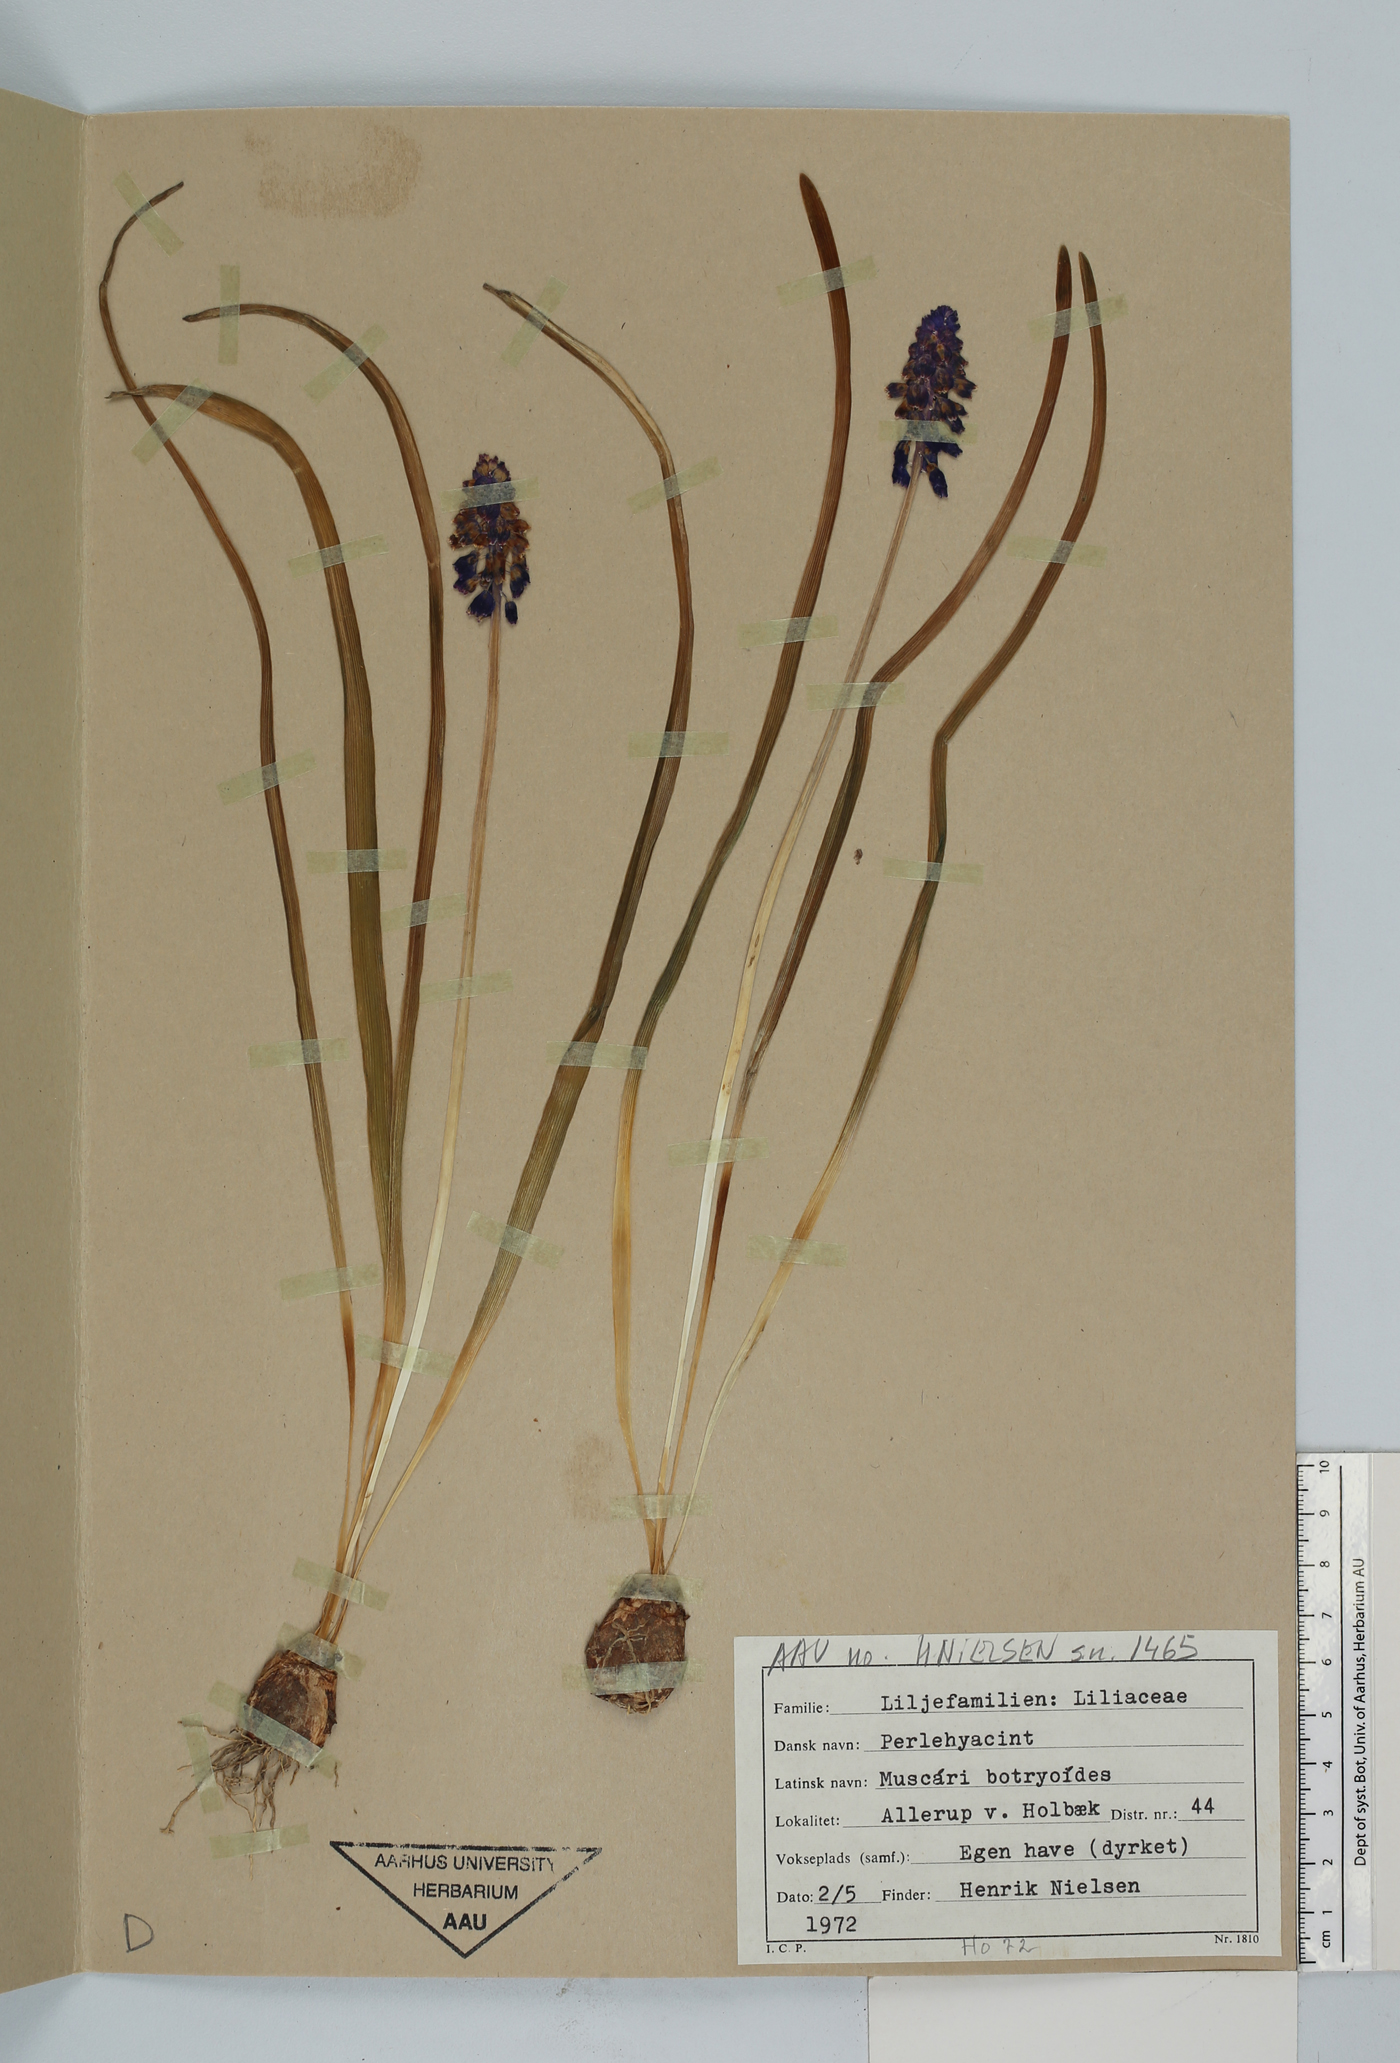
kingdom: Plantae
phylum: Tracheophyta
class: Liliopsida
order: Asparagales
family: Asparagaceae
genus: Muscari
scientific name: Muscari botryoides
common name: Compact grape-hyacinth
